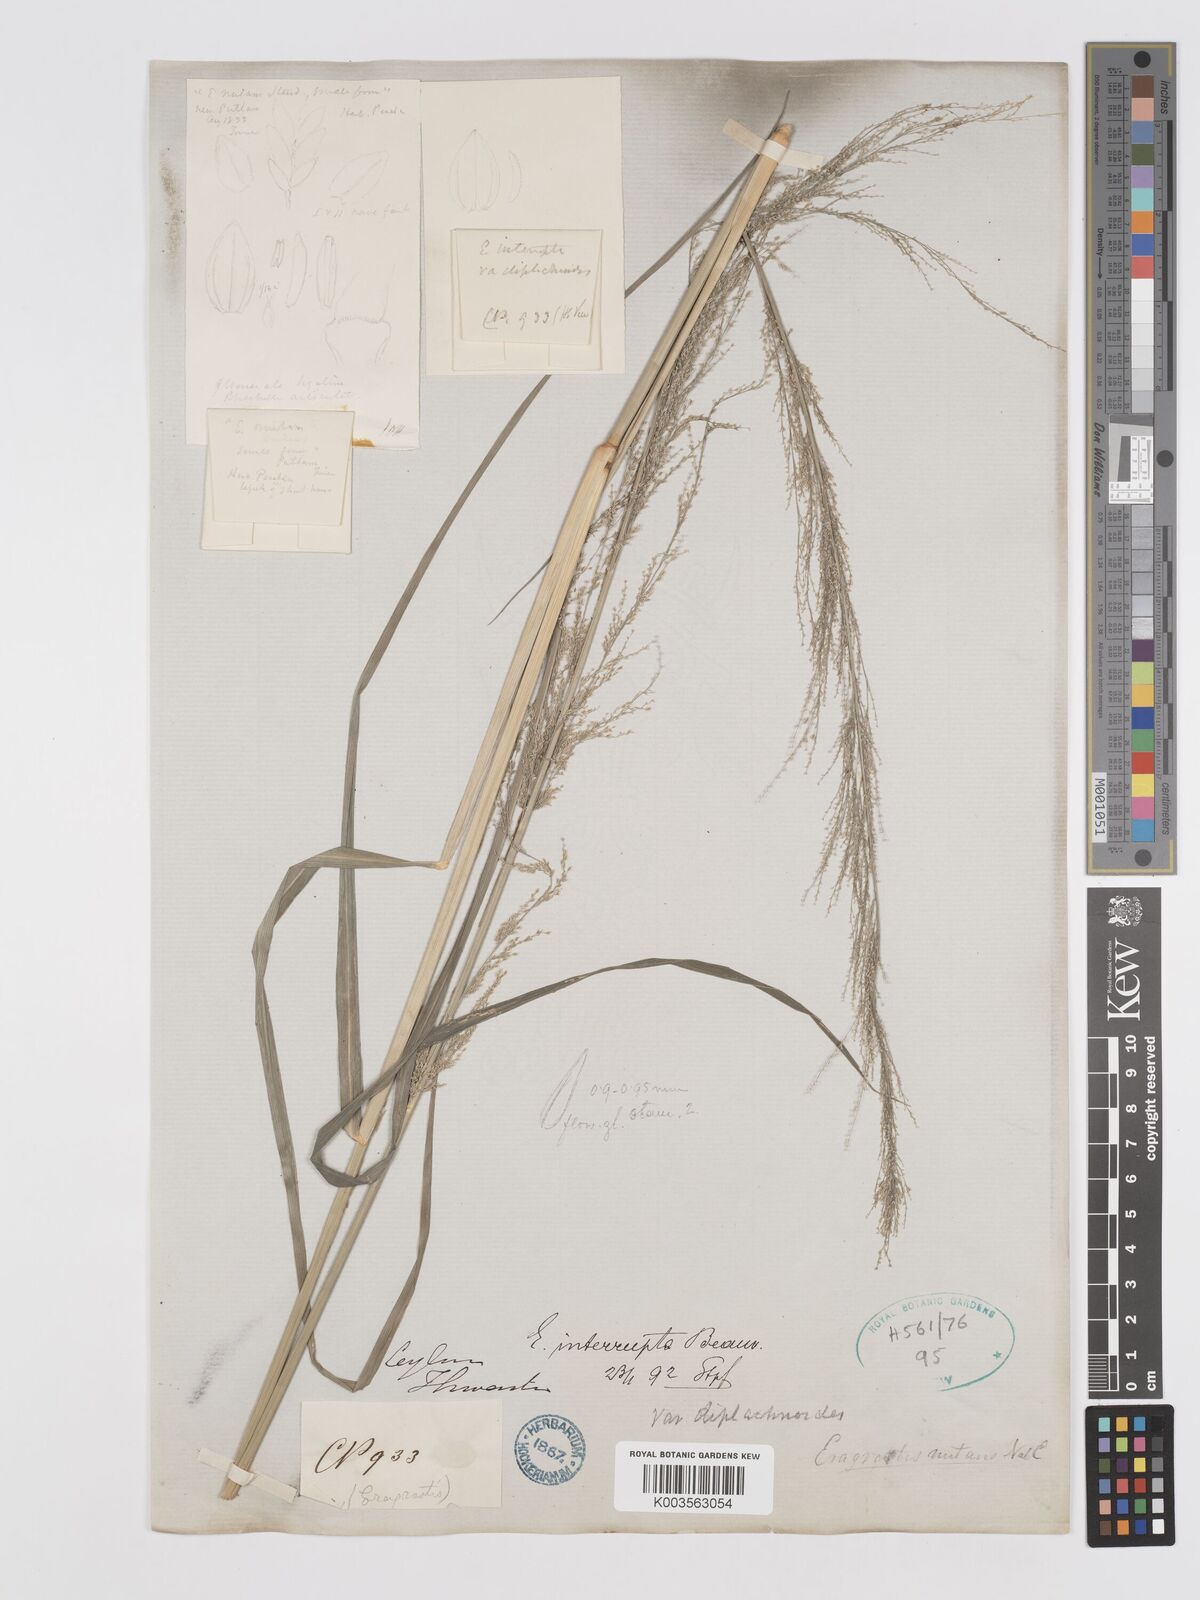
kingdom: Plantae
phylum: Tracheophyta
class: Liliopsida
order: Poales
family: Poaceae
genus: Eragrostis
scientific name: Eragrostis japonica
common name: Pond lovegrass
